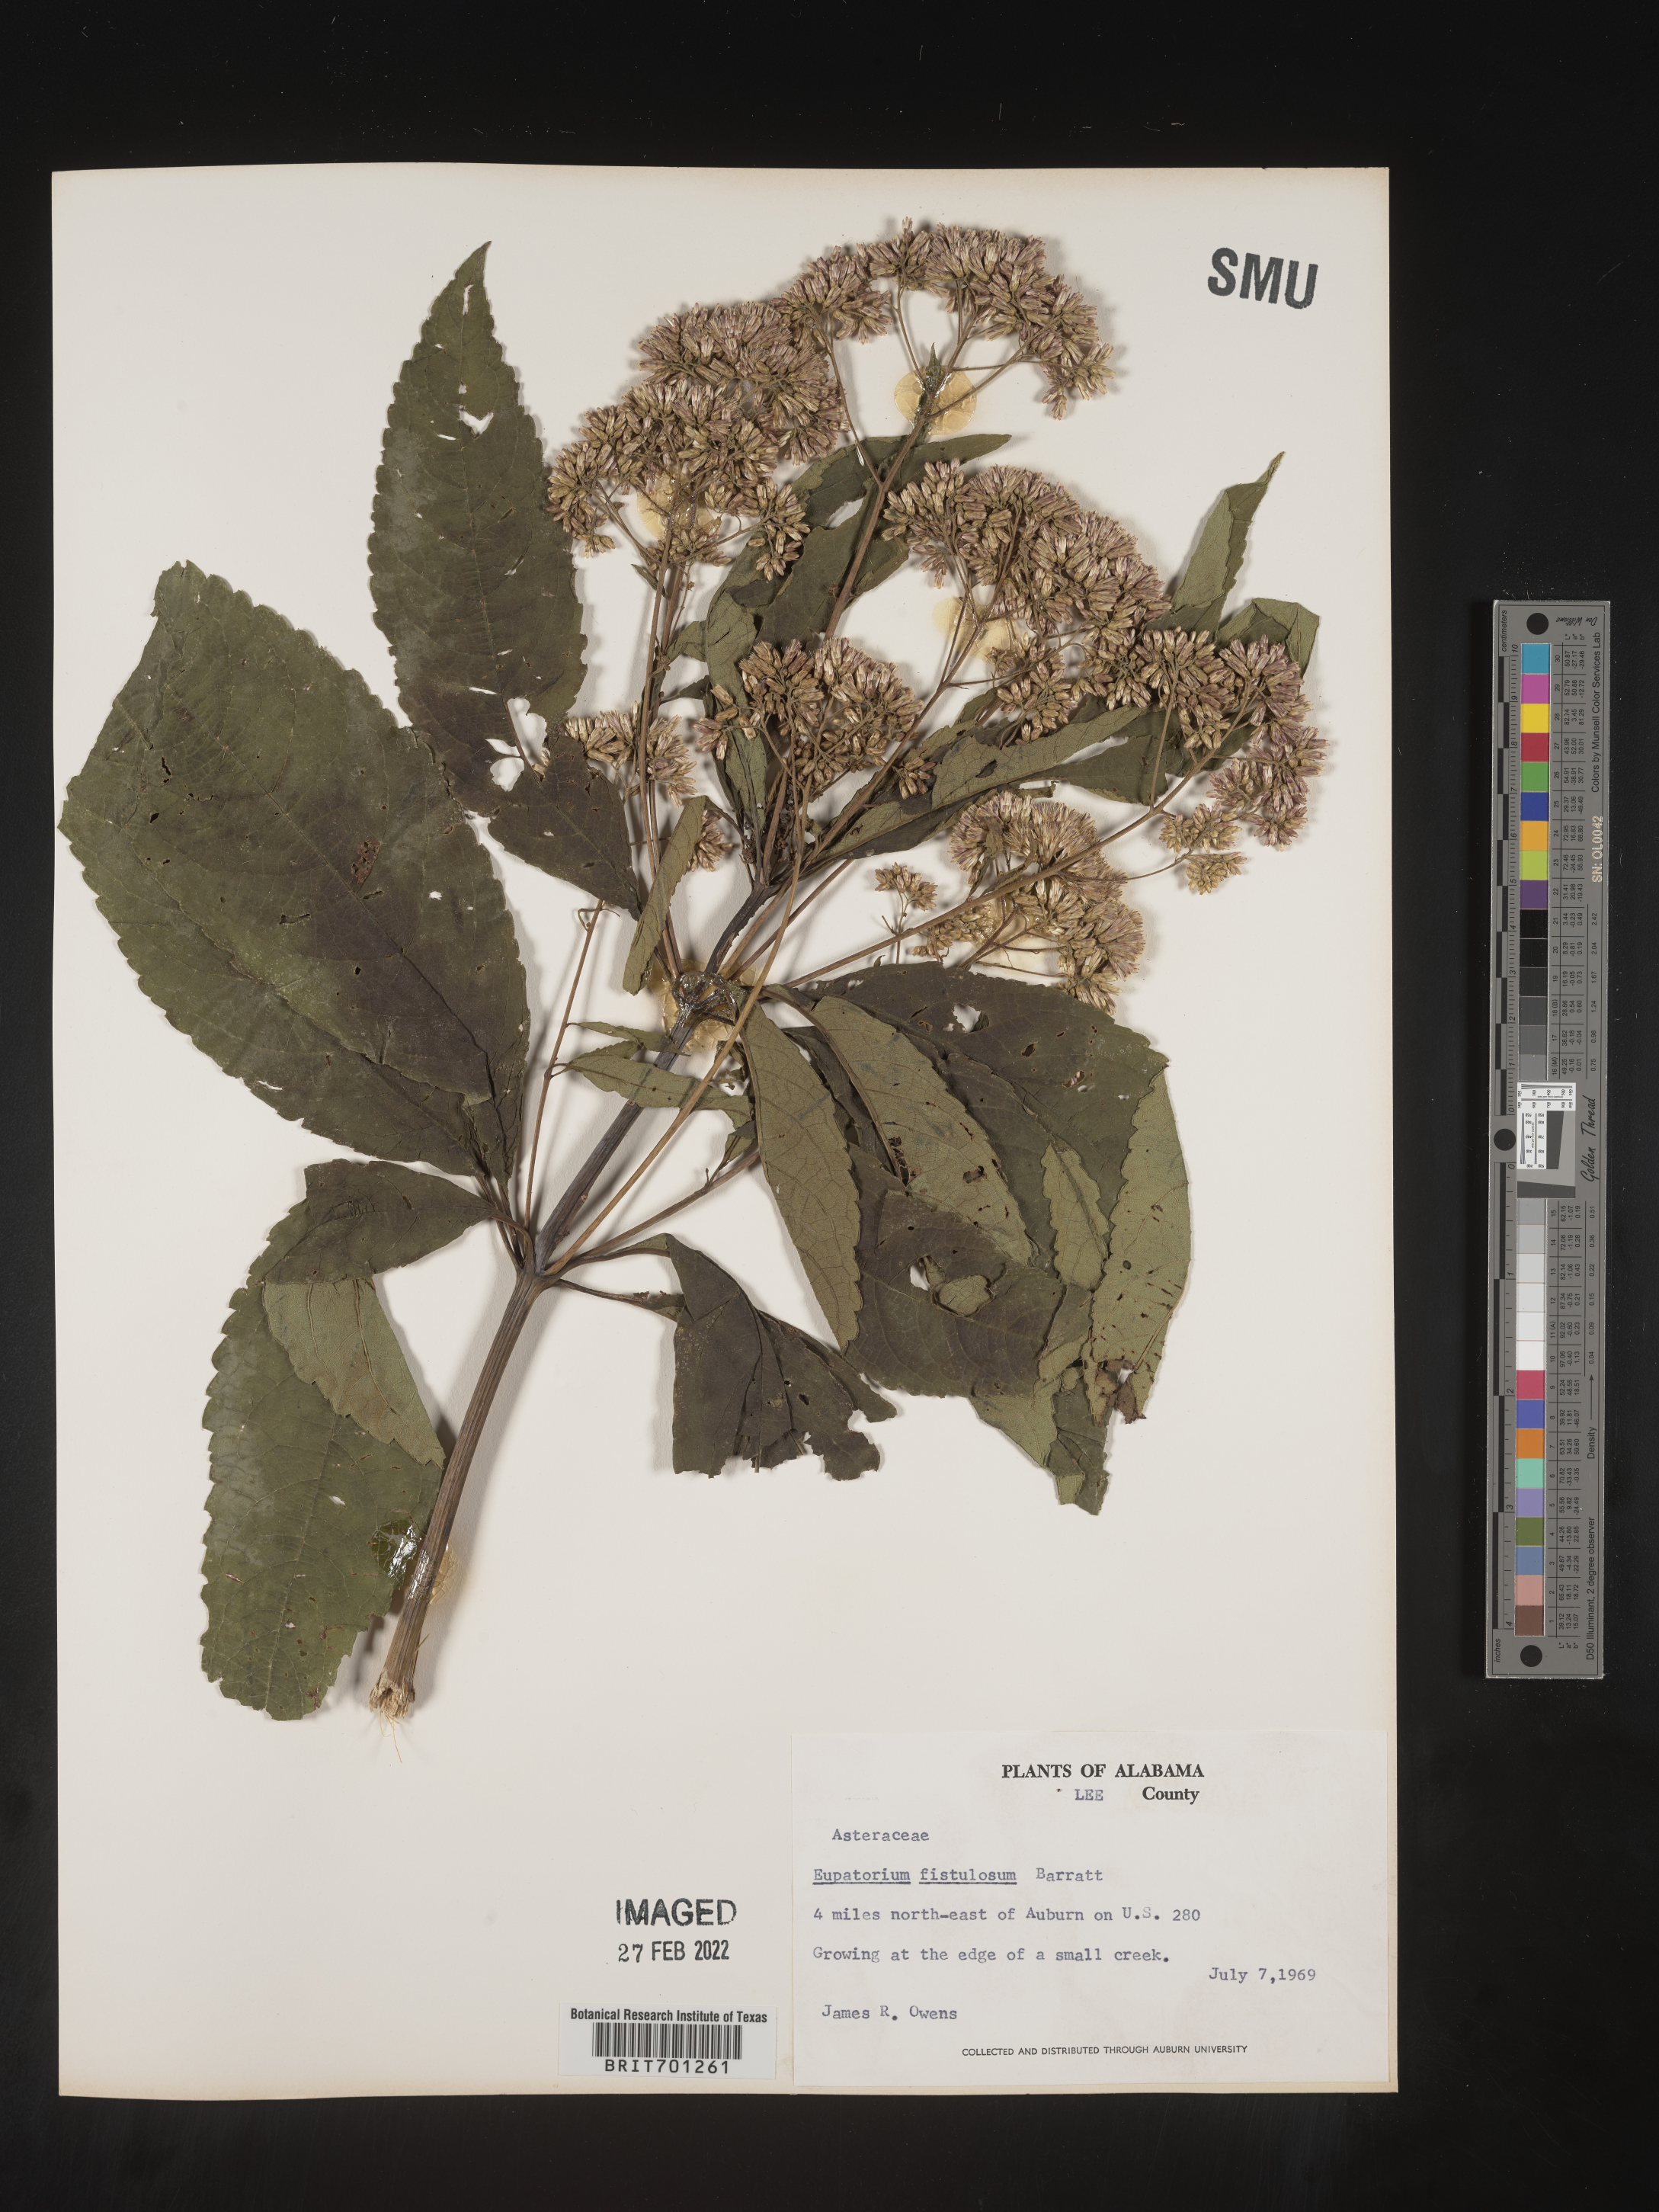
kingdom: Plantae
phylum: Tracheophyta
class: Magnoliopsida
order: Asterales
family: Asteraceae
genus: Eutrochium
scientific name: Eutrochium fistulosum
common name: Trumpetweed
